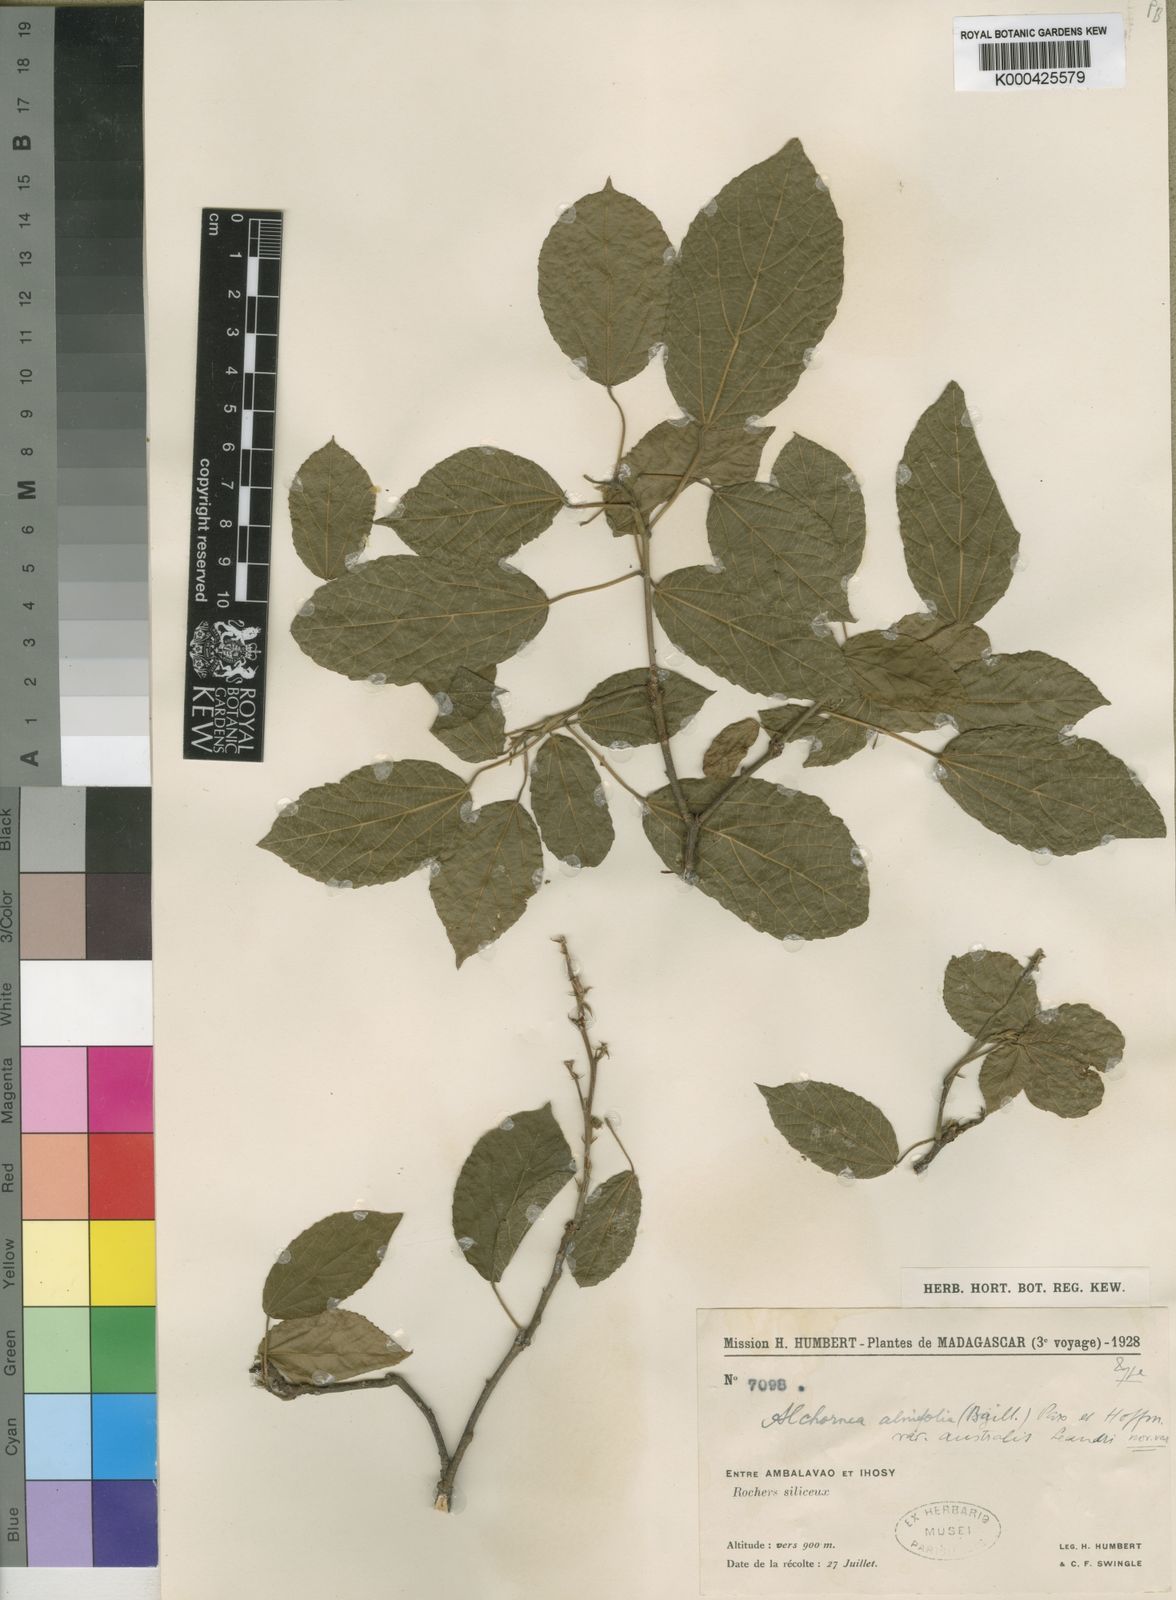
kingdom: Plantae
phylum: Tracheophyta
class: Magnoliopsida
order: Malpighiales
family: Euphorbiaceae
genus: Alchornea
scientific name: Alchornea alnifolia
